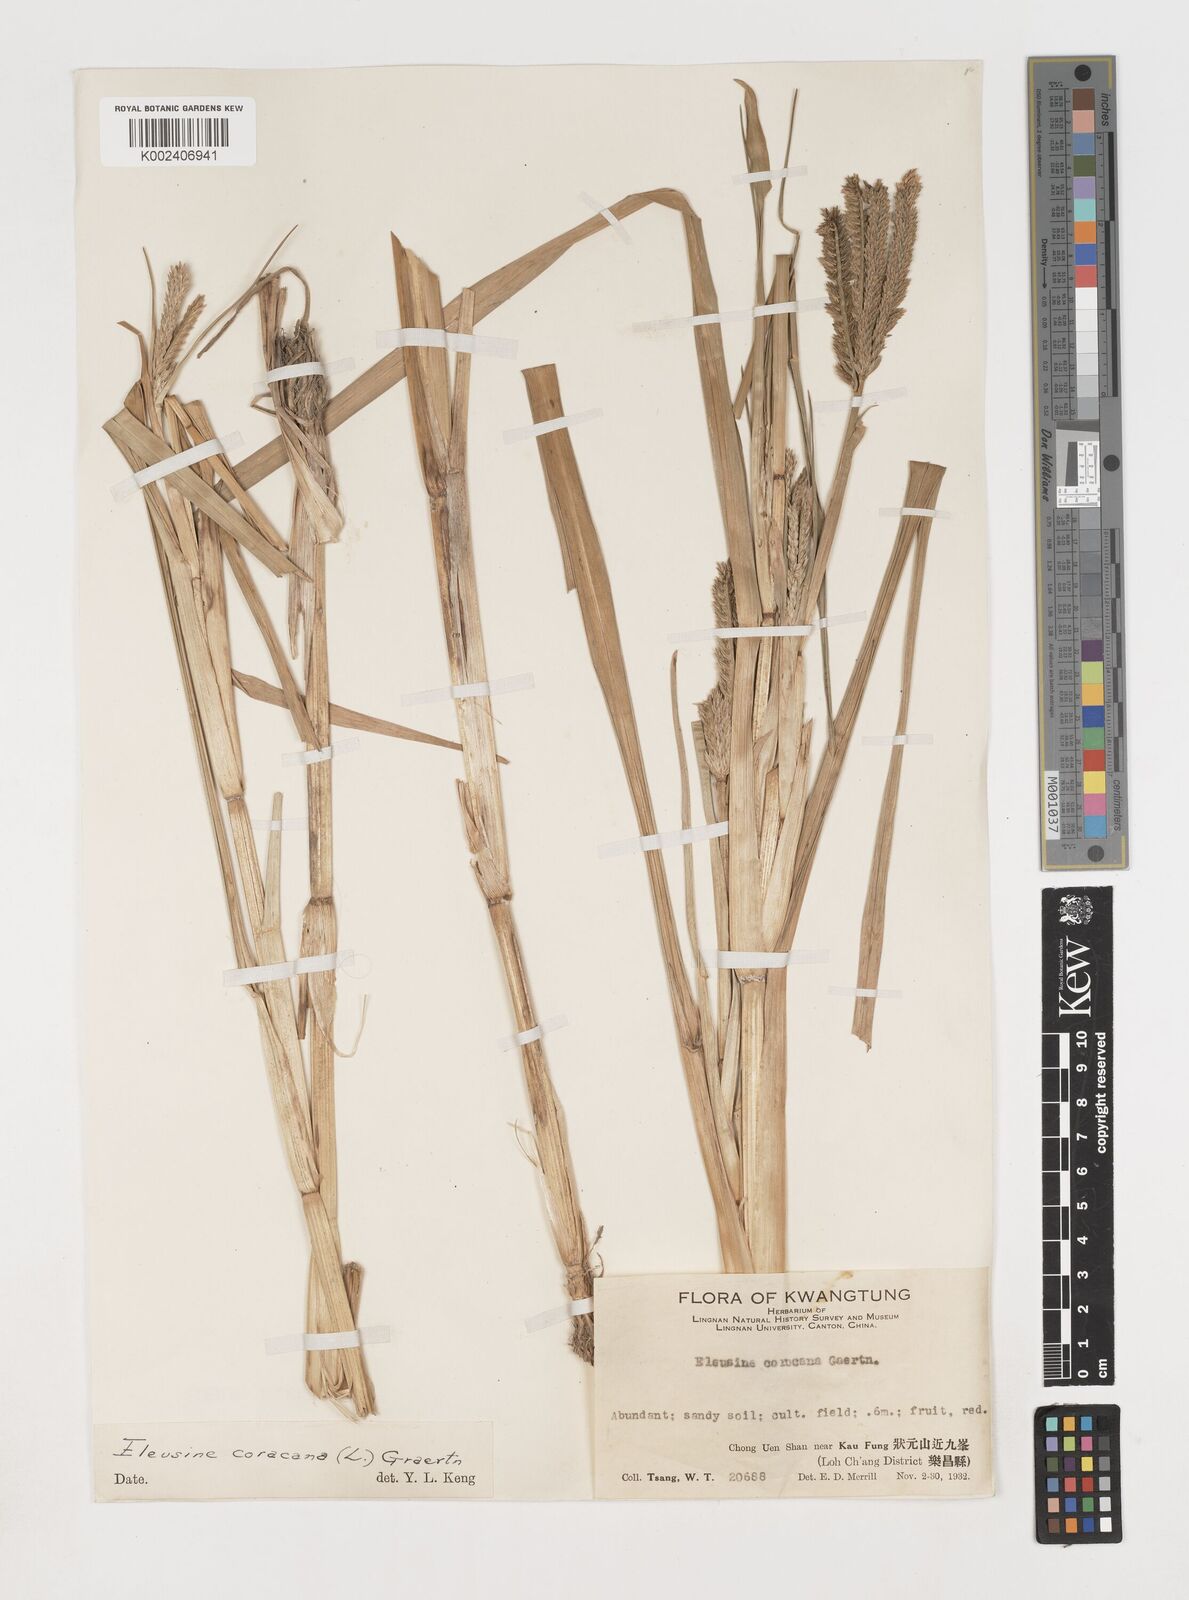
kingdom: Plantae
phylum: Tracheophyta
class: Liliopsida
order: Poales
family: Poaceae
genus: Eleusine
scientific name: Eleusine coracana
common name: Finger millet
